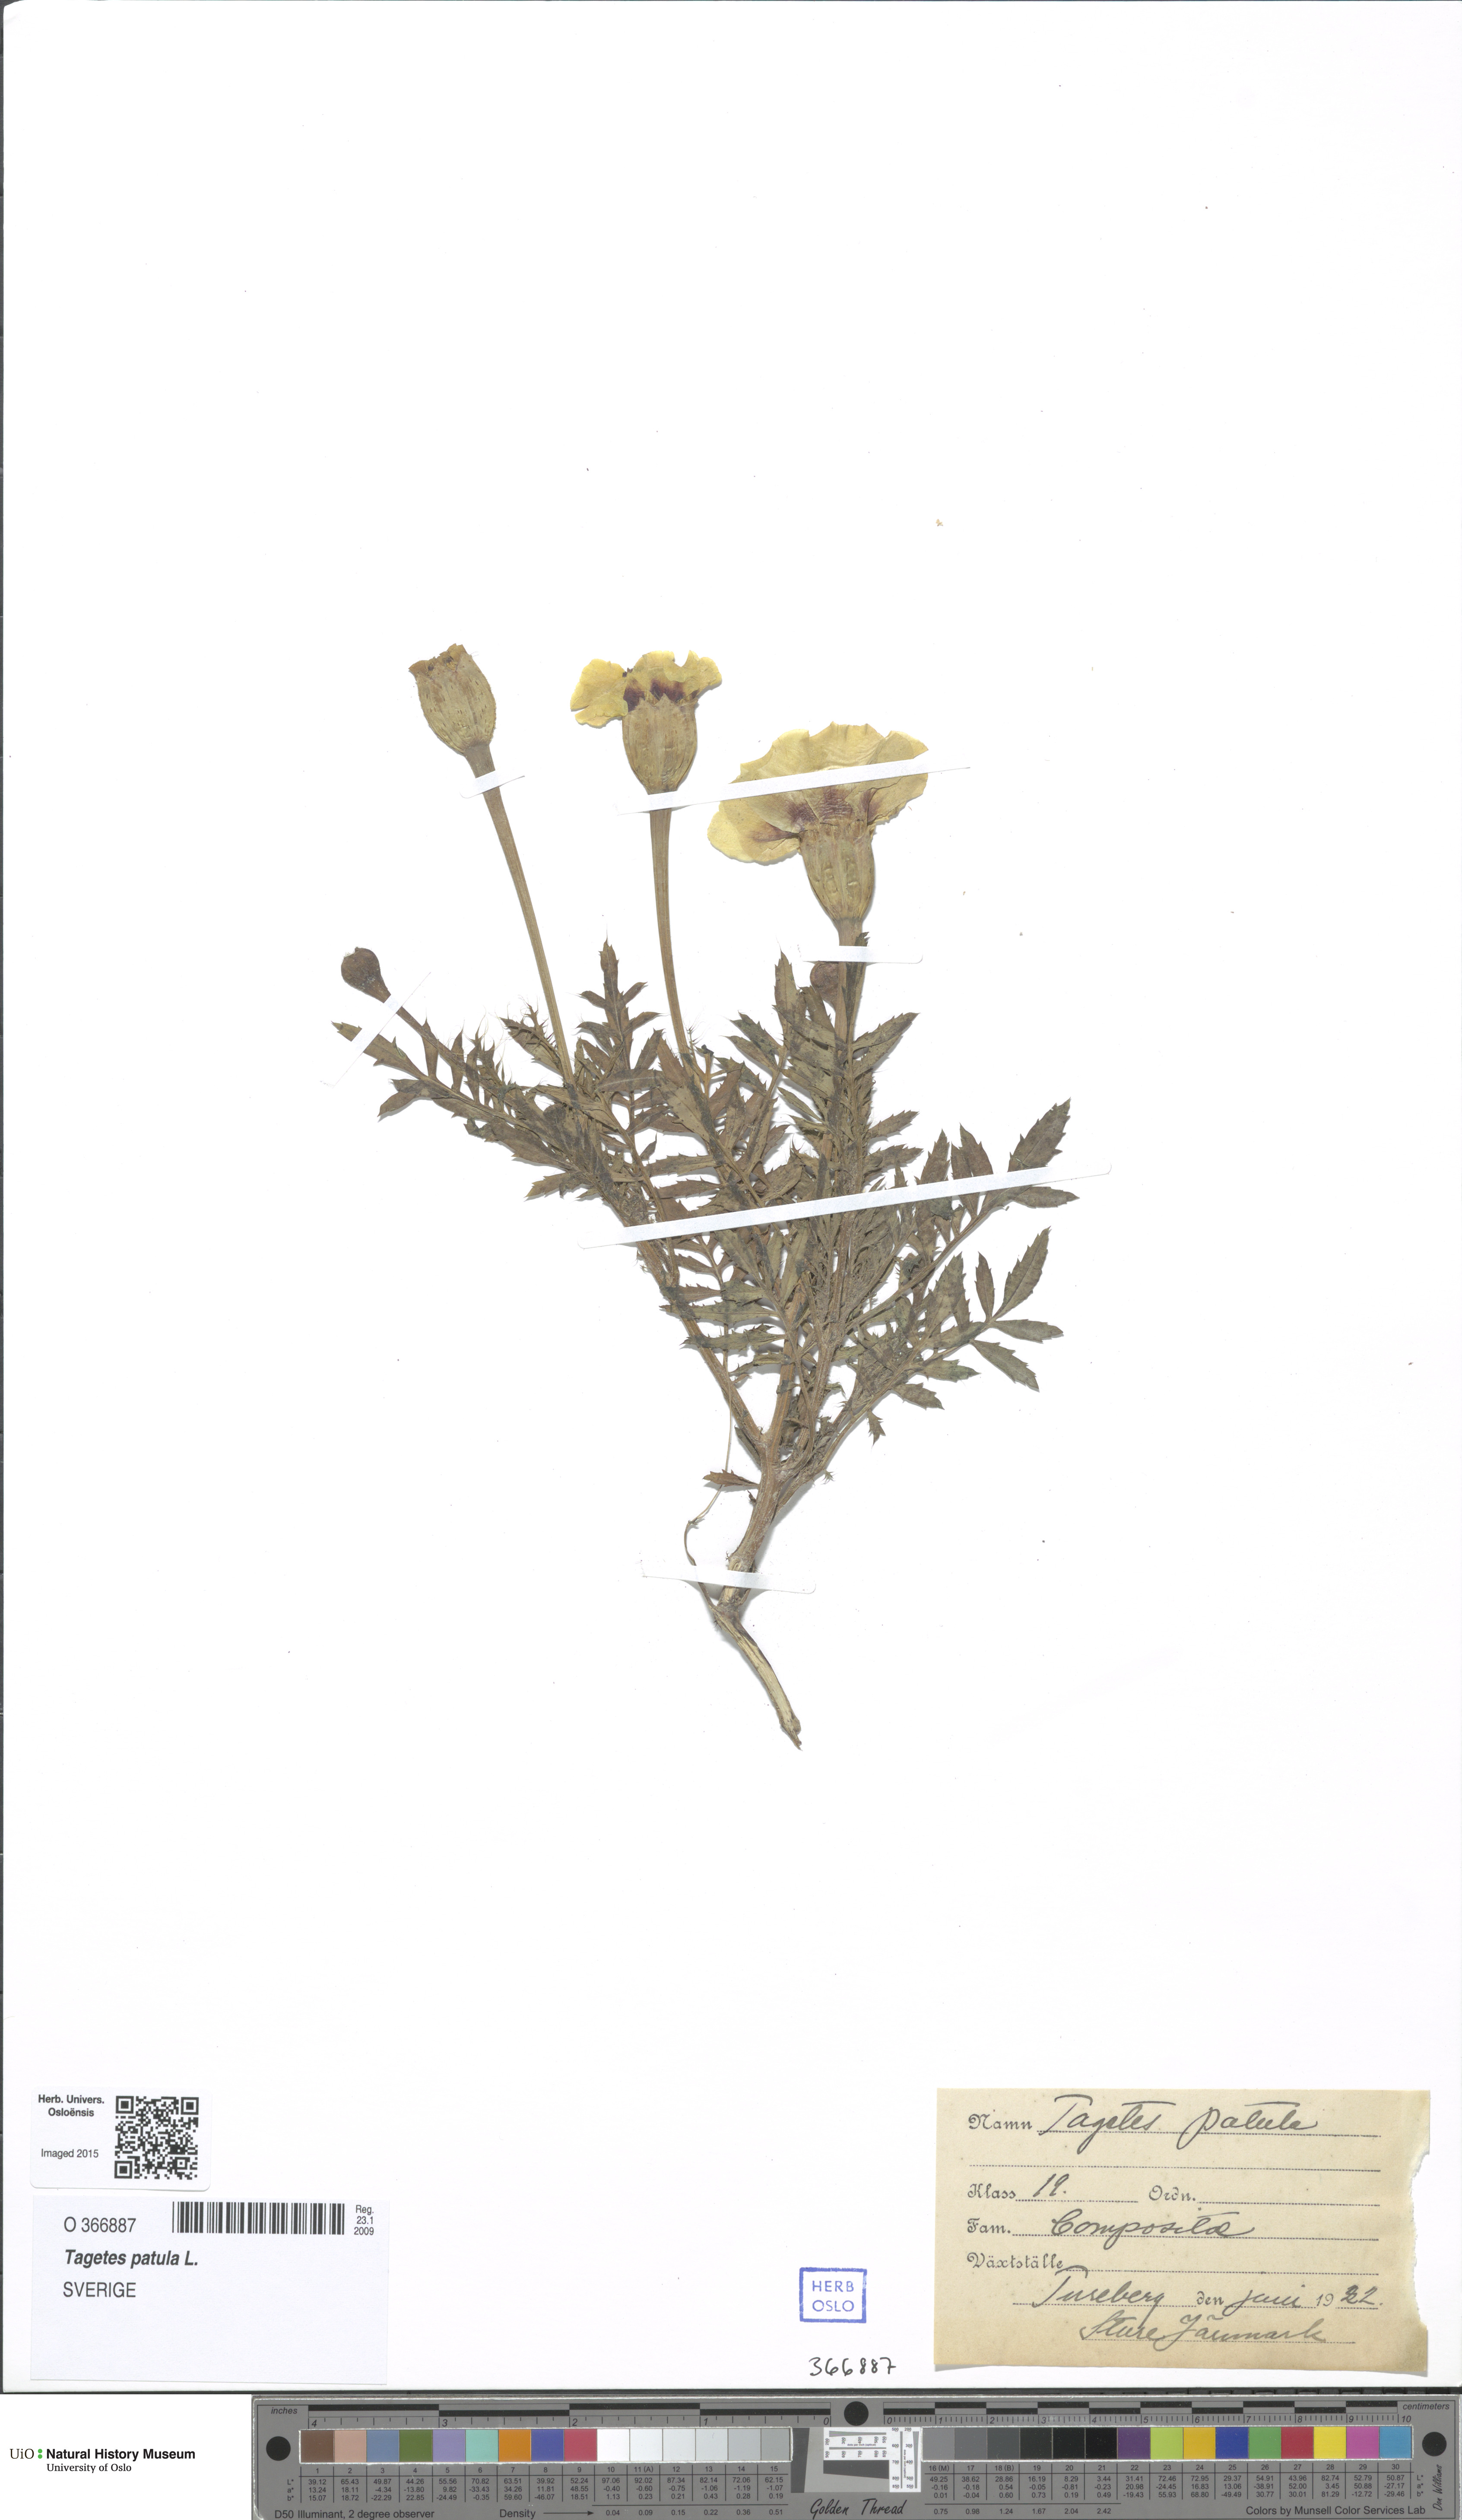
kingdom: Plantae
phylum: Tracheophyta
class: Magnoliopsida
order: Asterales
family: Asteraceae
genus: Tagetes
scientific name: Tagetes erecta
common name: African marigold
